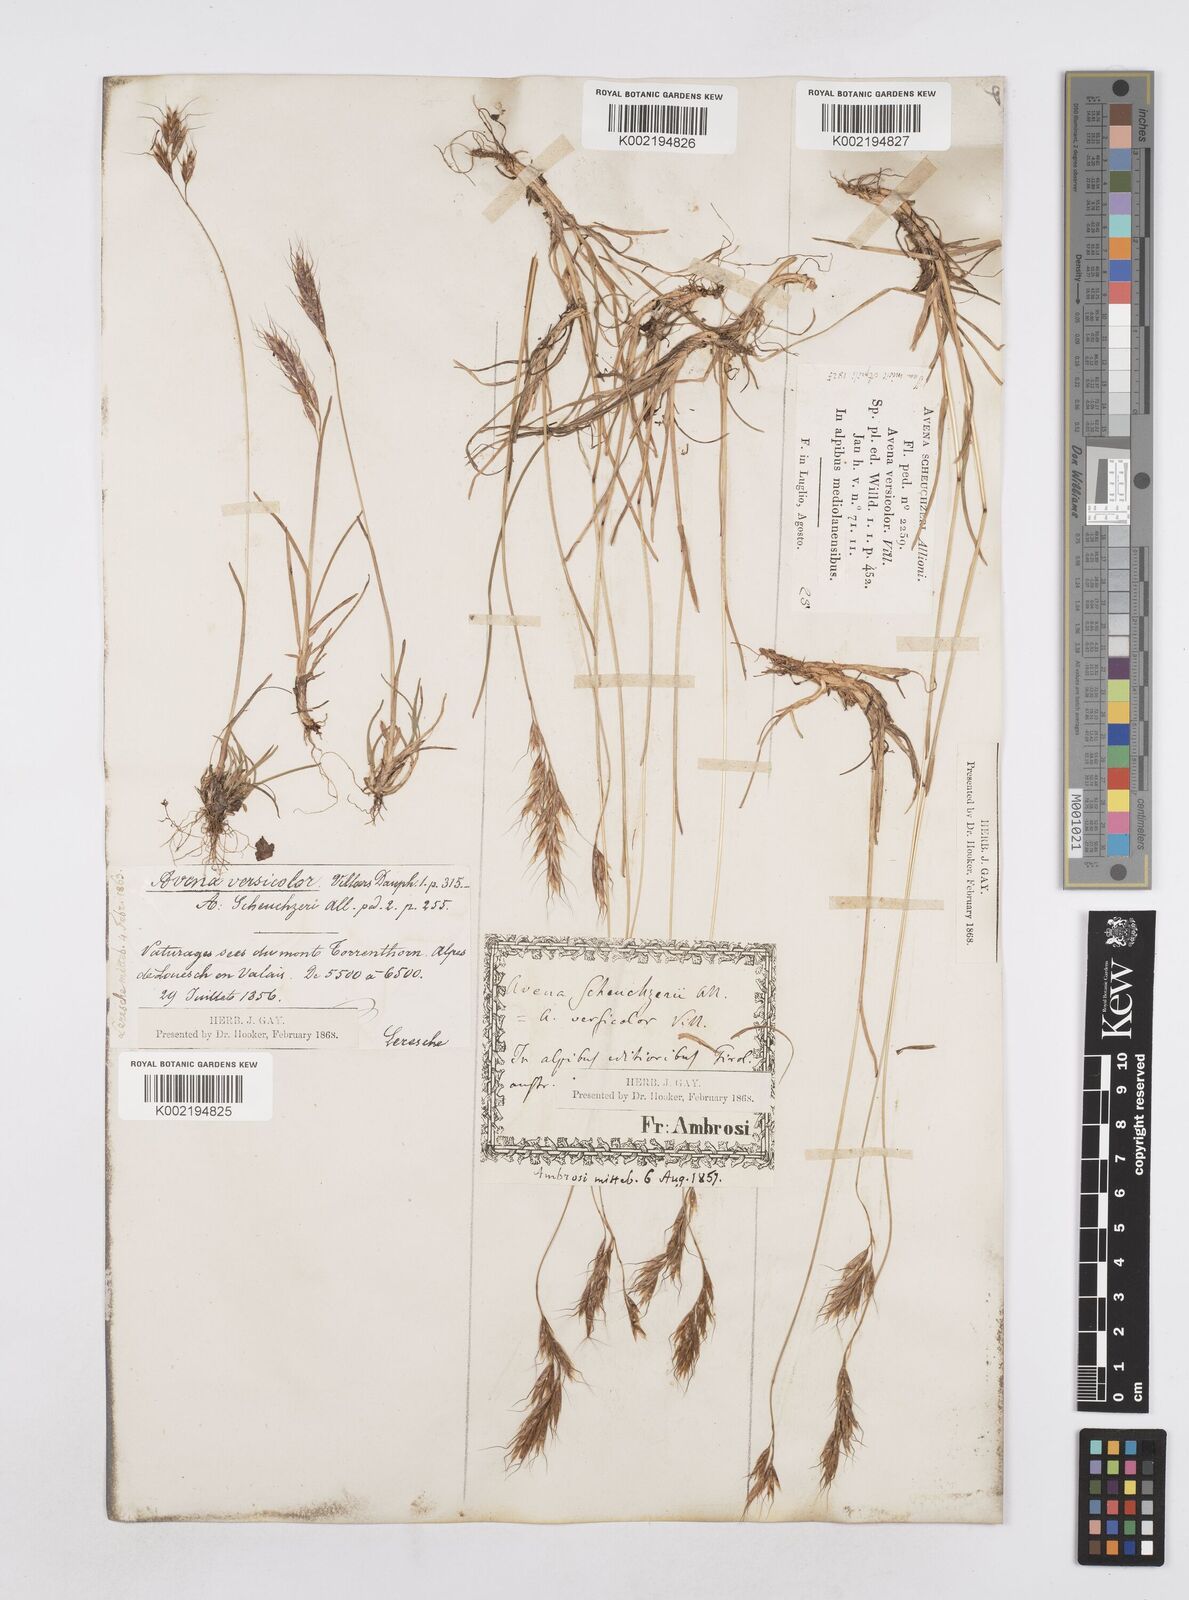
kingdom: Plantae
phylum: Tracheophyta
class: Liliopsida
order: Poales
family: Poaceae
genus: Helictotrichon
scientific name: Helictotrichon
